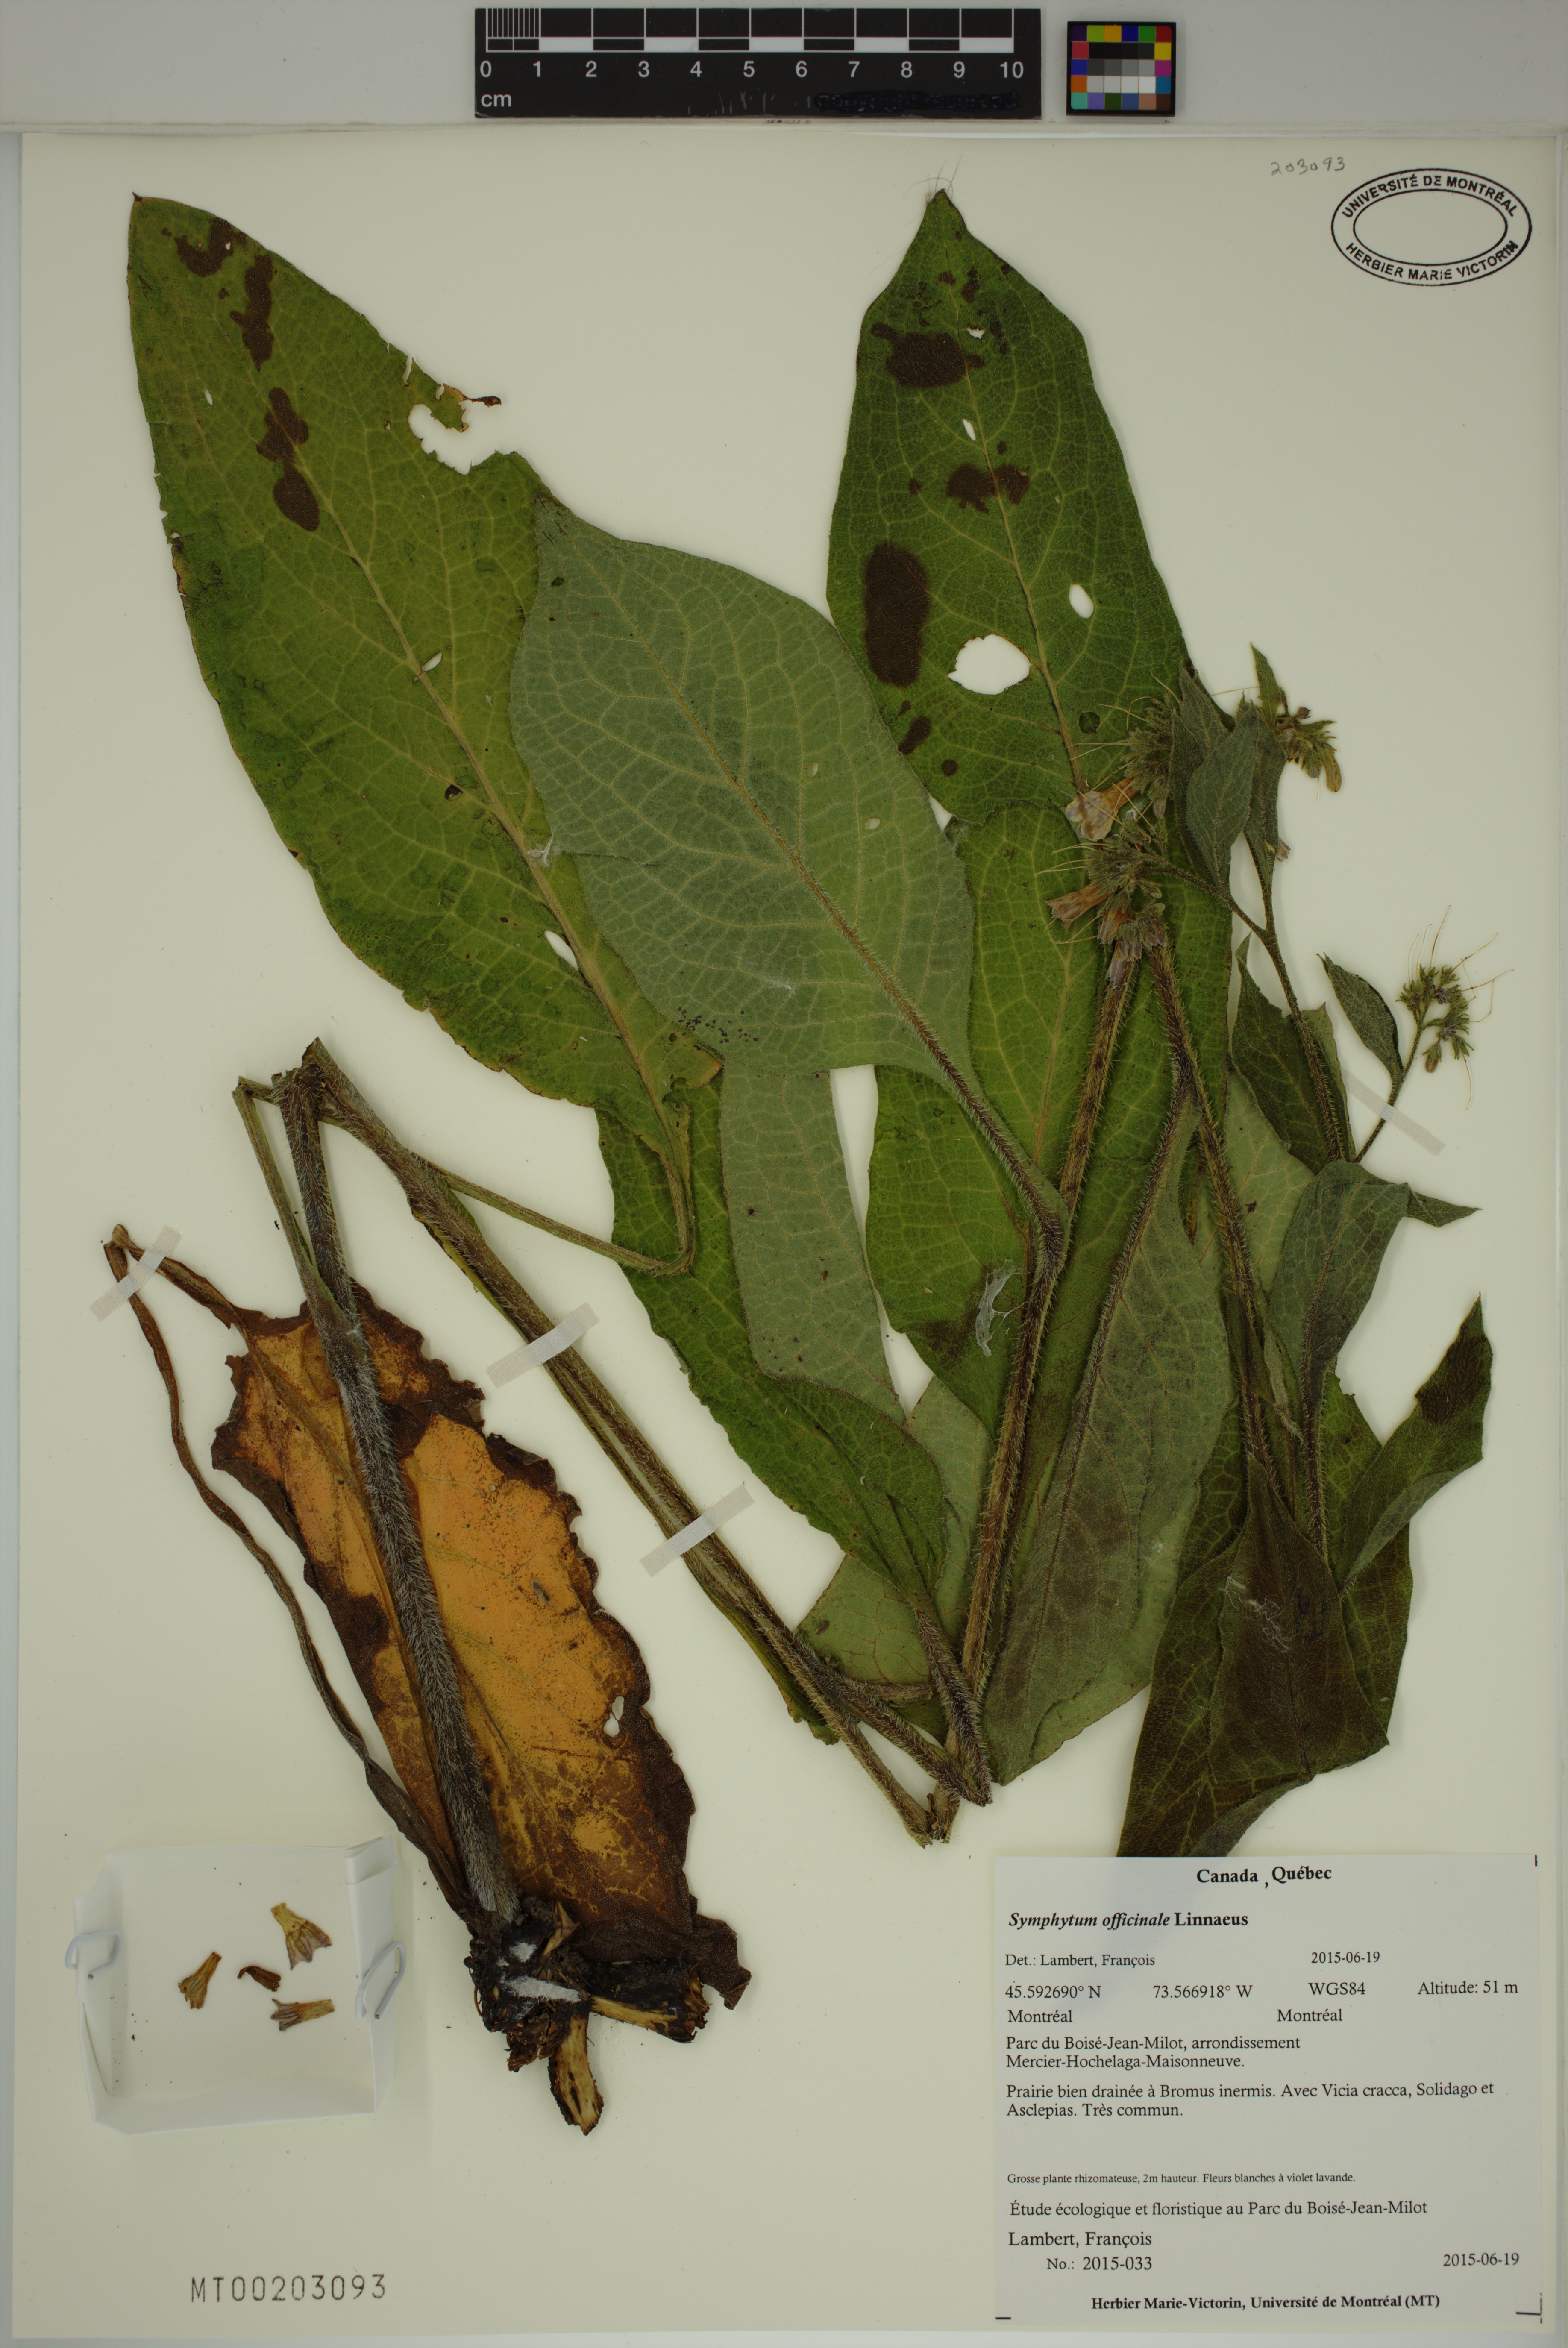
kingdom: Plantae
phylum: Tracheophyta
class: Magnoliopsida
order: Boraginales
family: Boraginaceae
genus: Symphytum
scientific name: Symphytum officinale
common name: Common comfrey
